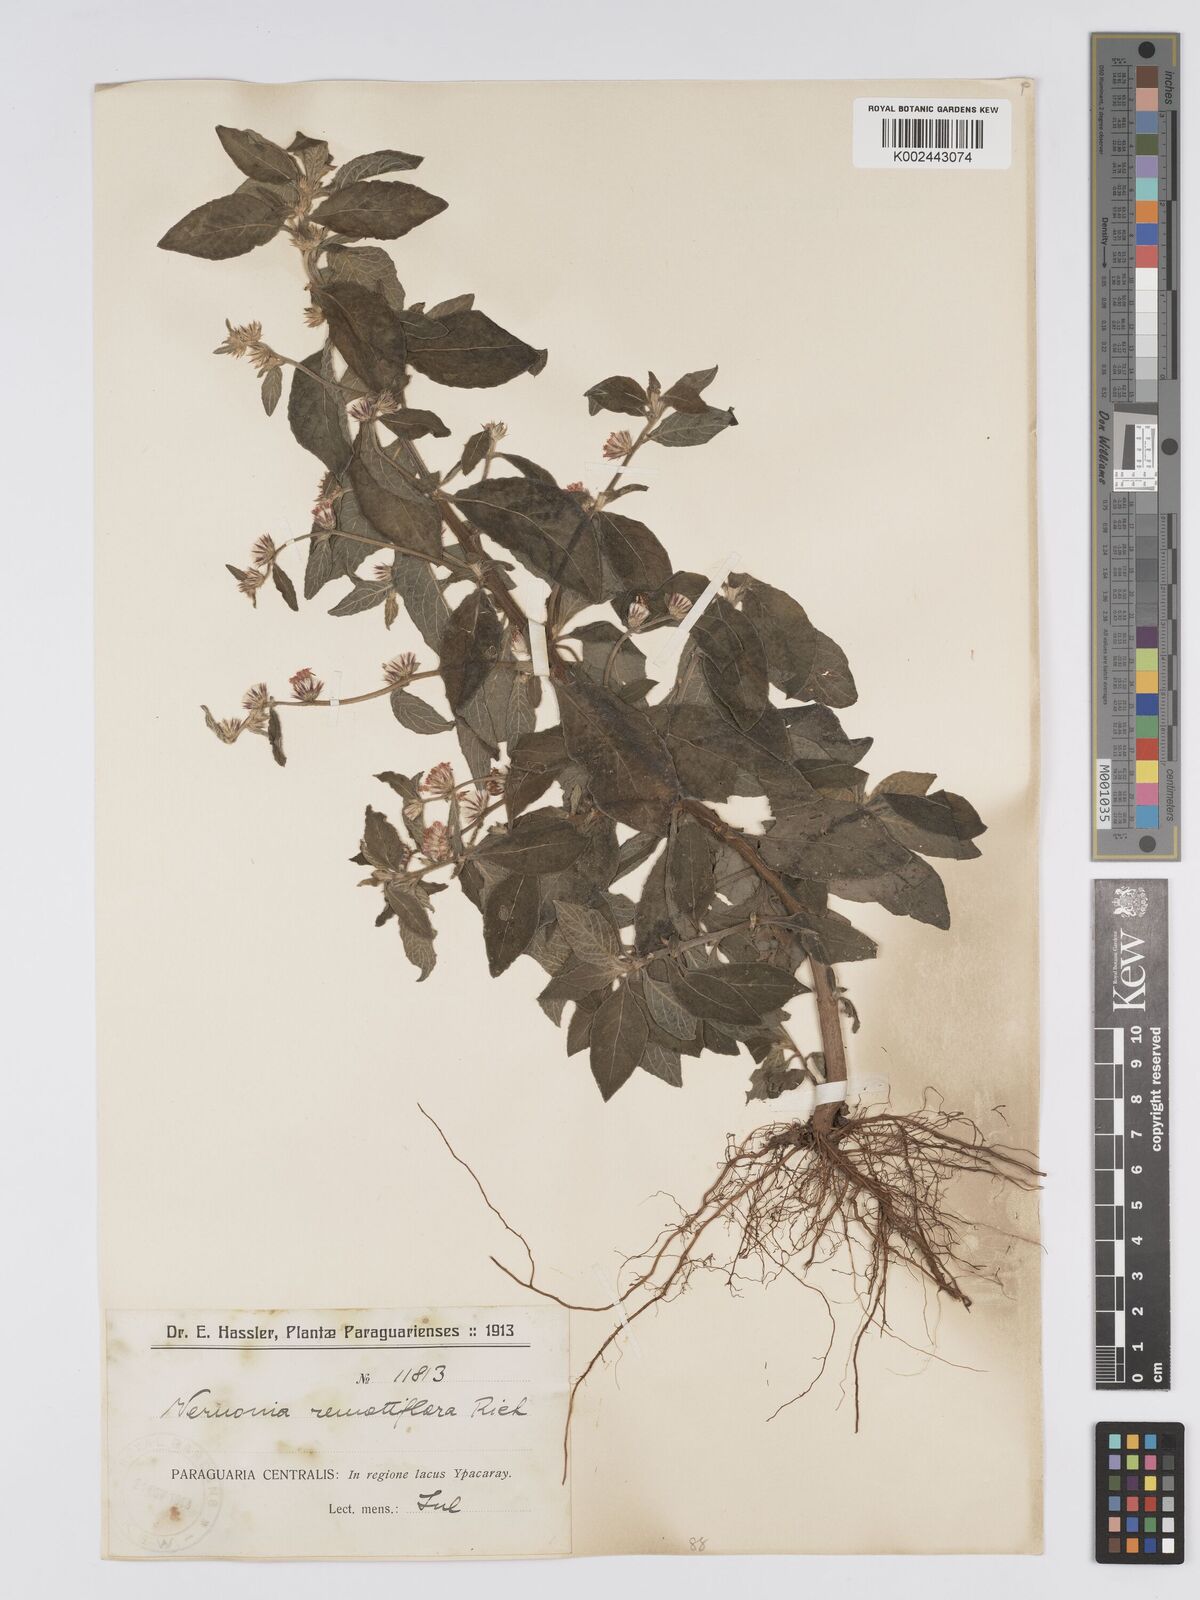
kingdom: Plantae
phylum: Tracheophyta
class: Magnoliopsida
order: Asterales
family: Asteraceae
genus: Lepidaploa
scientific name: Lepidaploa remotiflora
